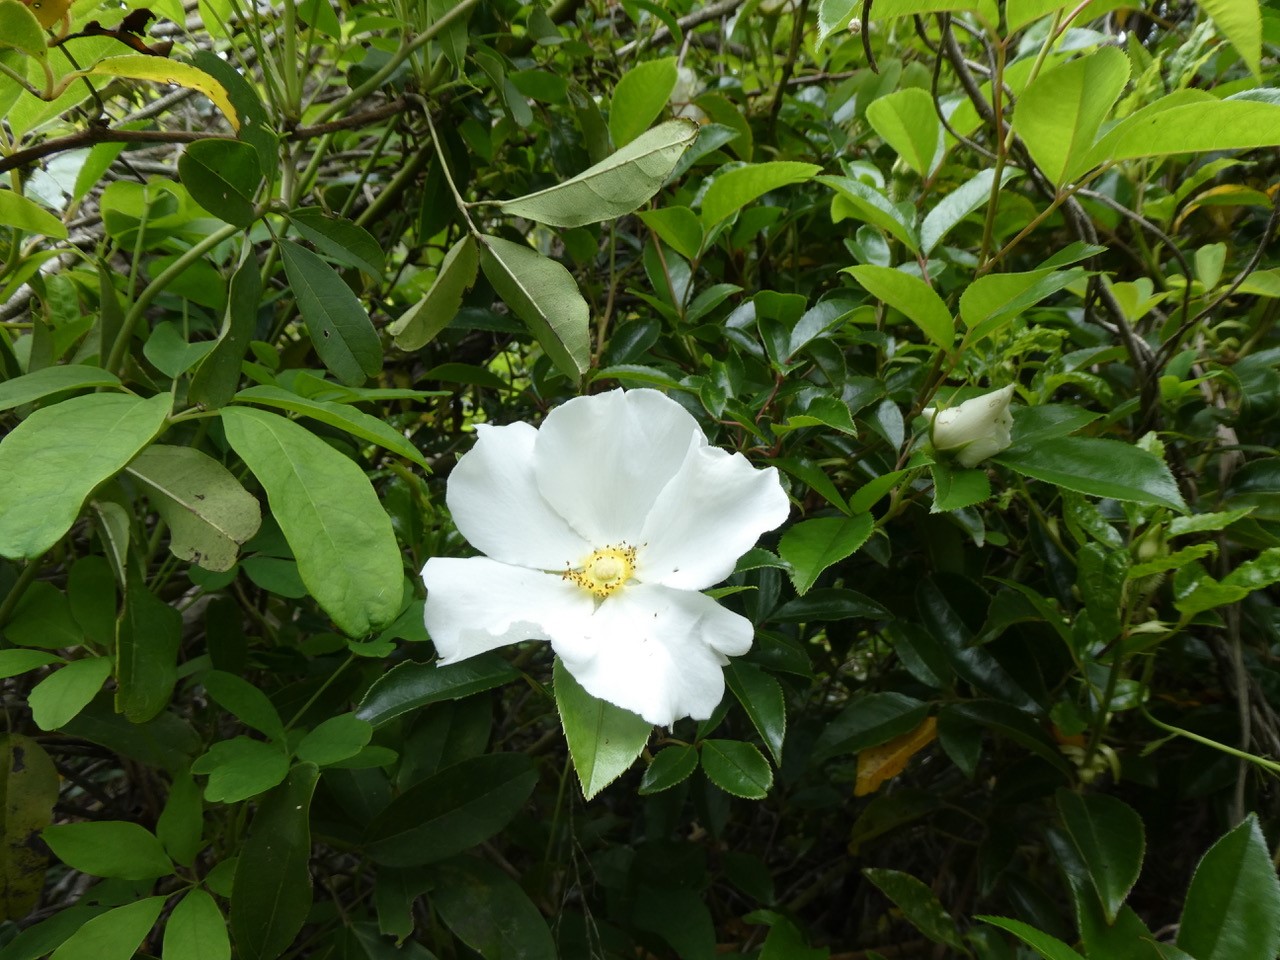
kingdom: Plantae
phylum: Tracheophyta
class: Magnoliopsida
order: Rosales
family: Rosaceae
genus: Rosa
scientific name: Rosa laevigata
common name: Cherokee rose
